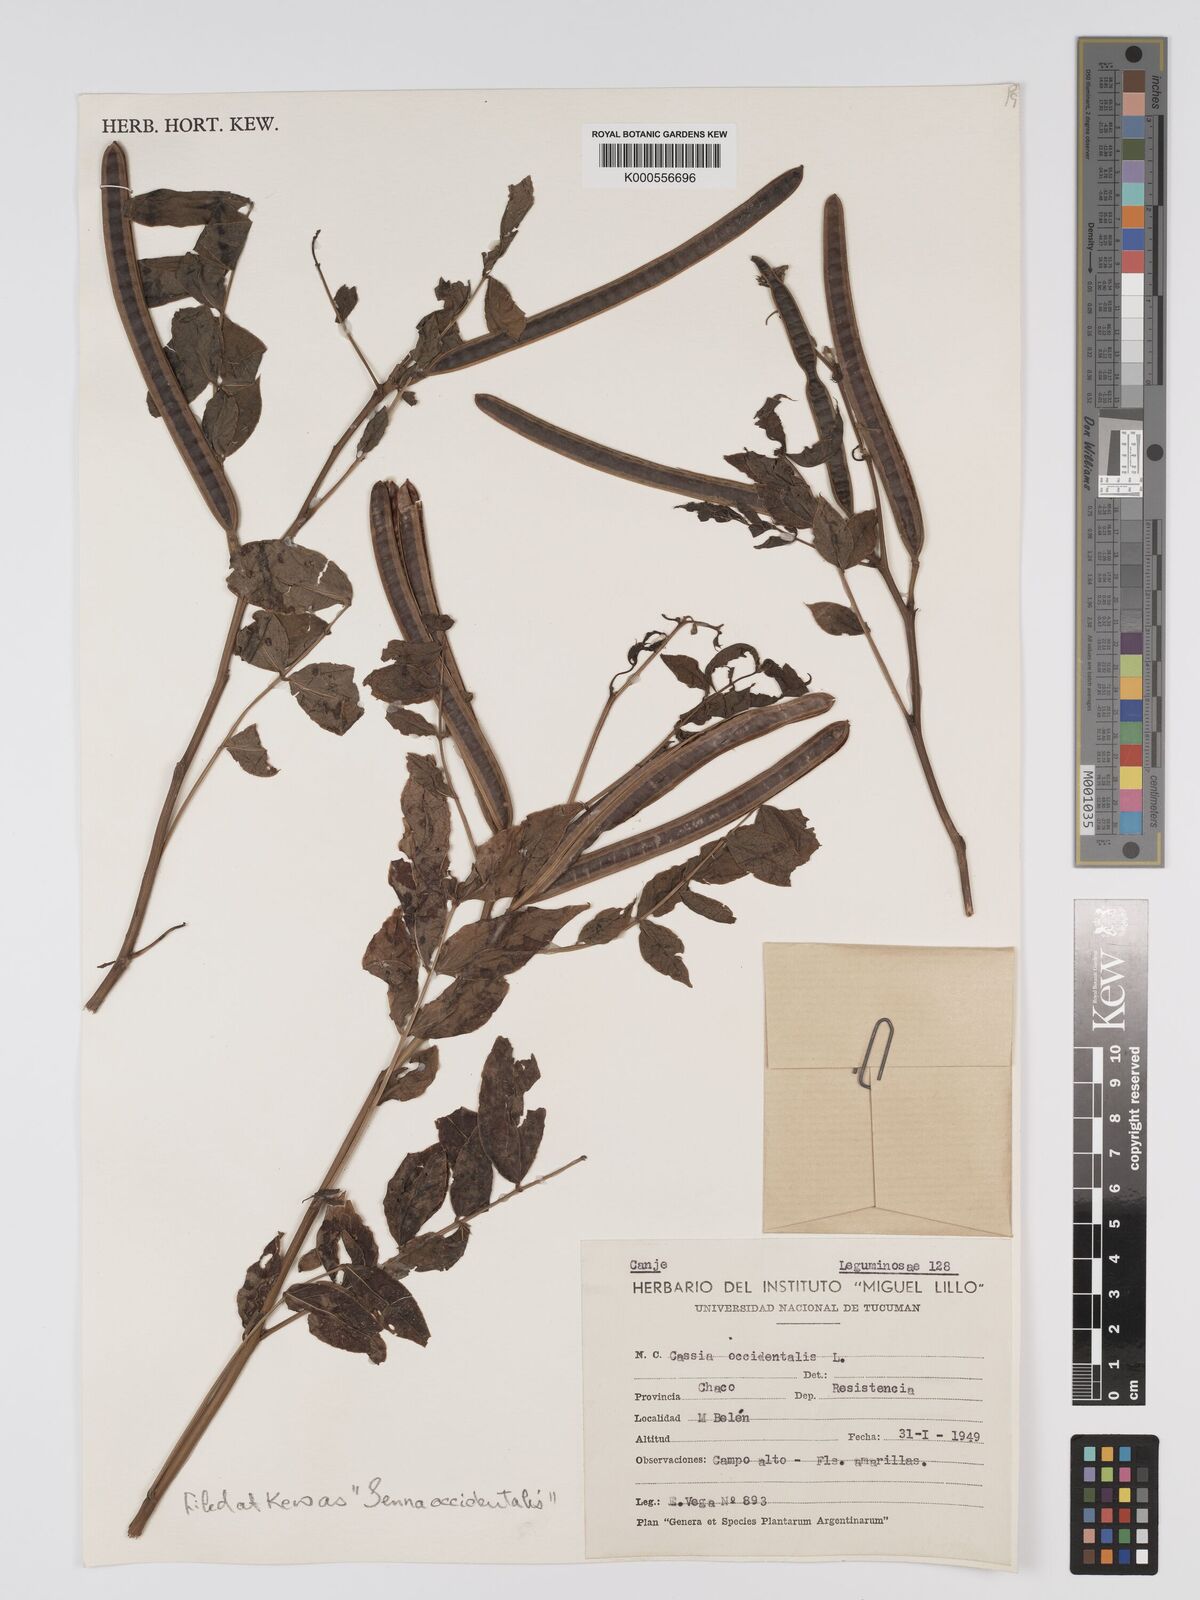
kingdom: Plantae
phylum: Tracheophyta
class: Magnoliopsida
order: Fabales
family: Fabaceae
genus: Senna
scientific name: Senna occidentalis
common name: Septicweed
